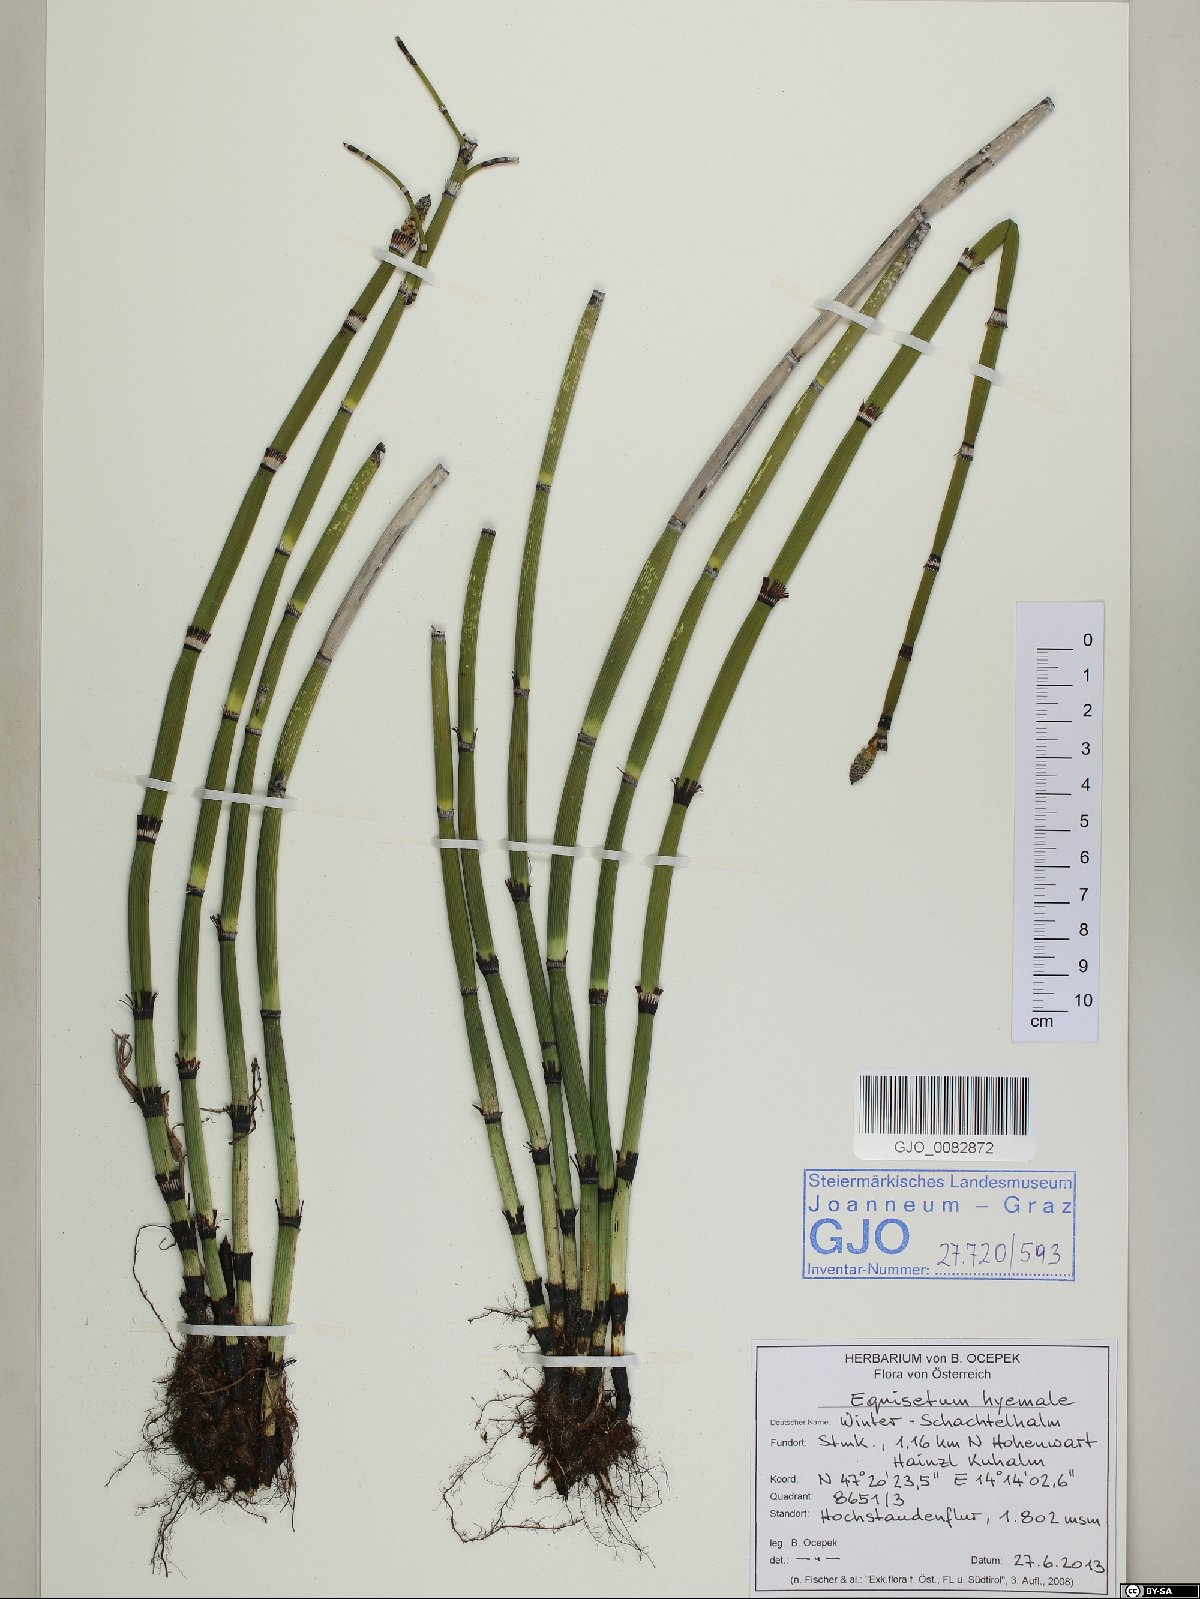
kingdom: Plantae
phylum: Tracheophyta
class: Polypodiopsida
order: Equisetales
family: Equisetaceae
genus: Equisetum
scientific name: Equisetum hyemale
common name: Rough horsetail
